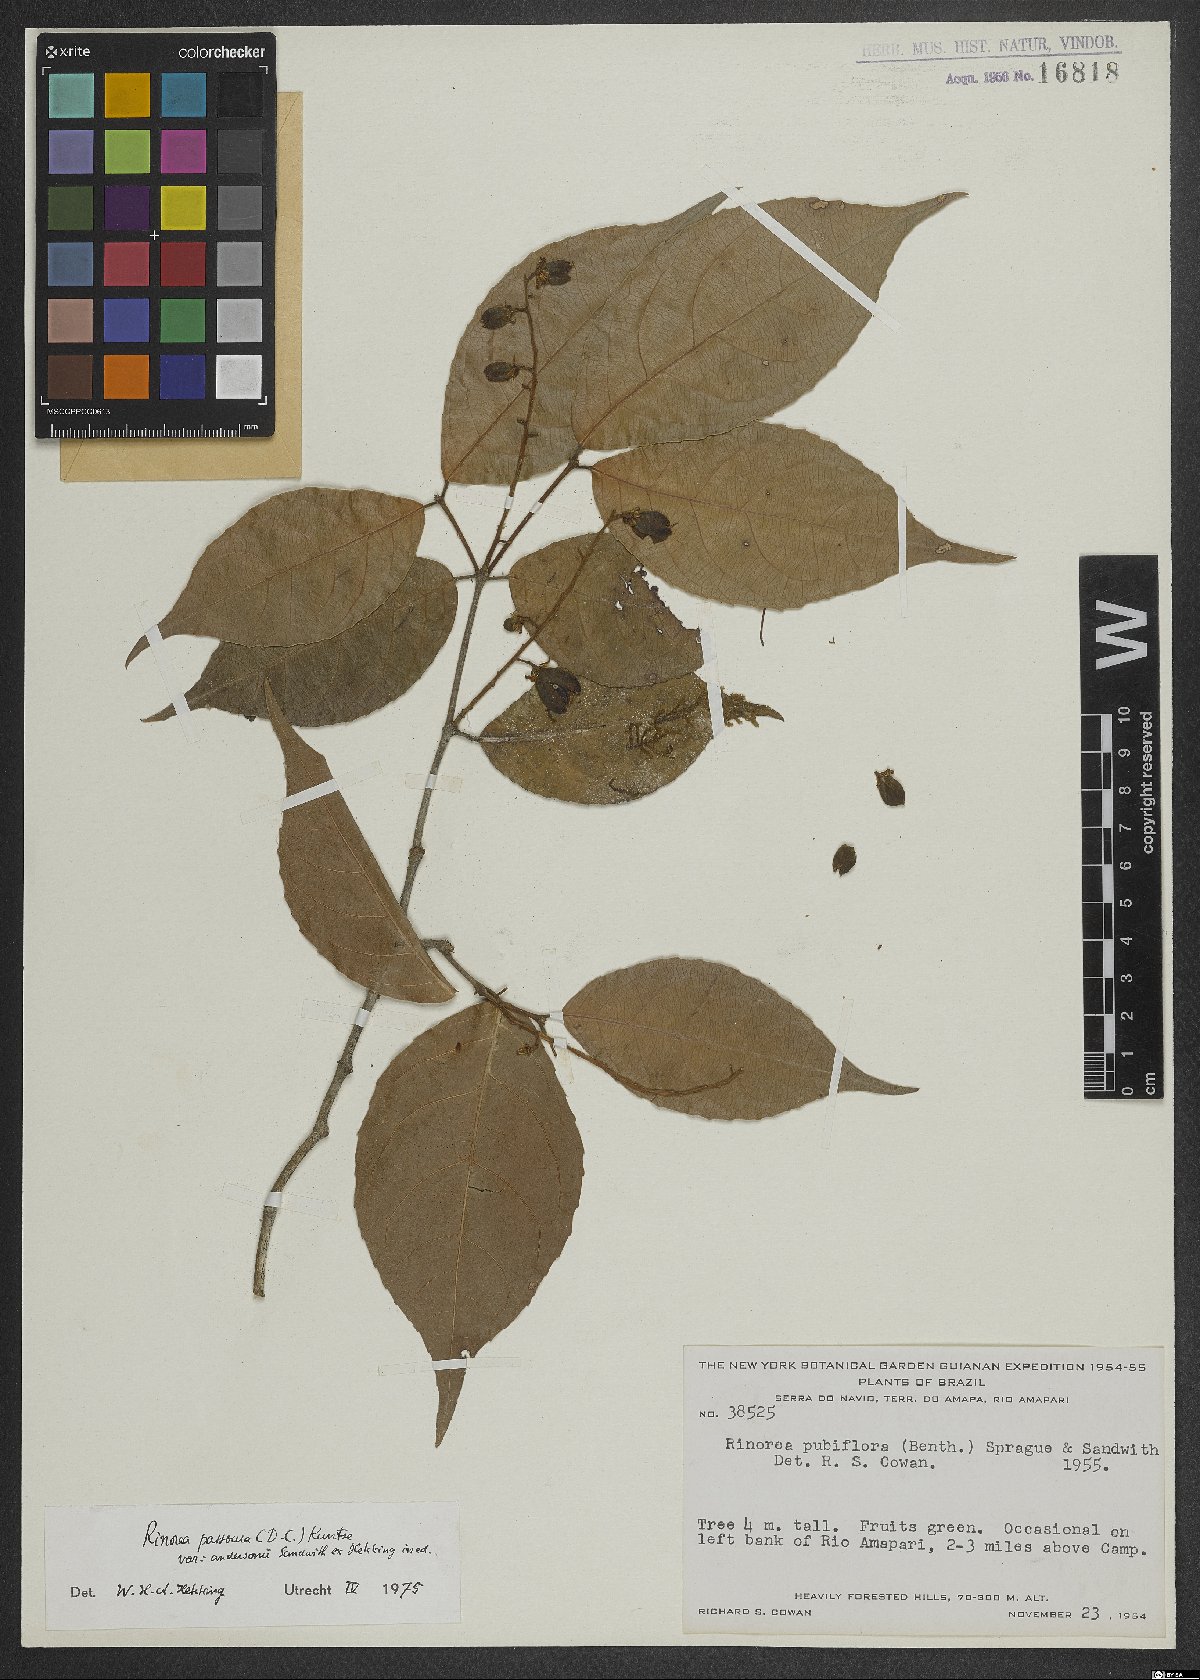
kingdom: Plantae
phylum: Tracheophyta
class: Magnoliopsida
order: Malpighiales
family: Violaceae
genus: Rinorea
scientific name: Rinorea pubiflora
